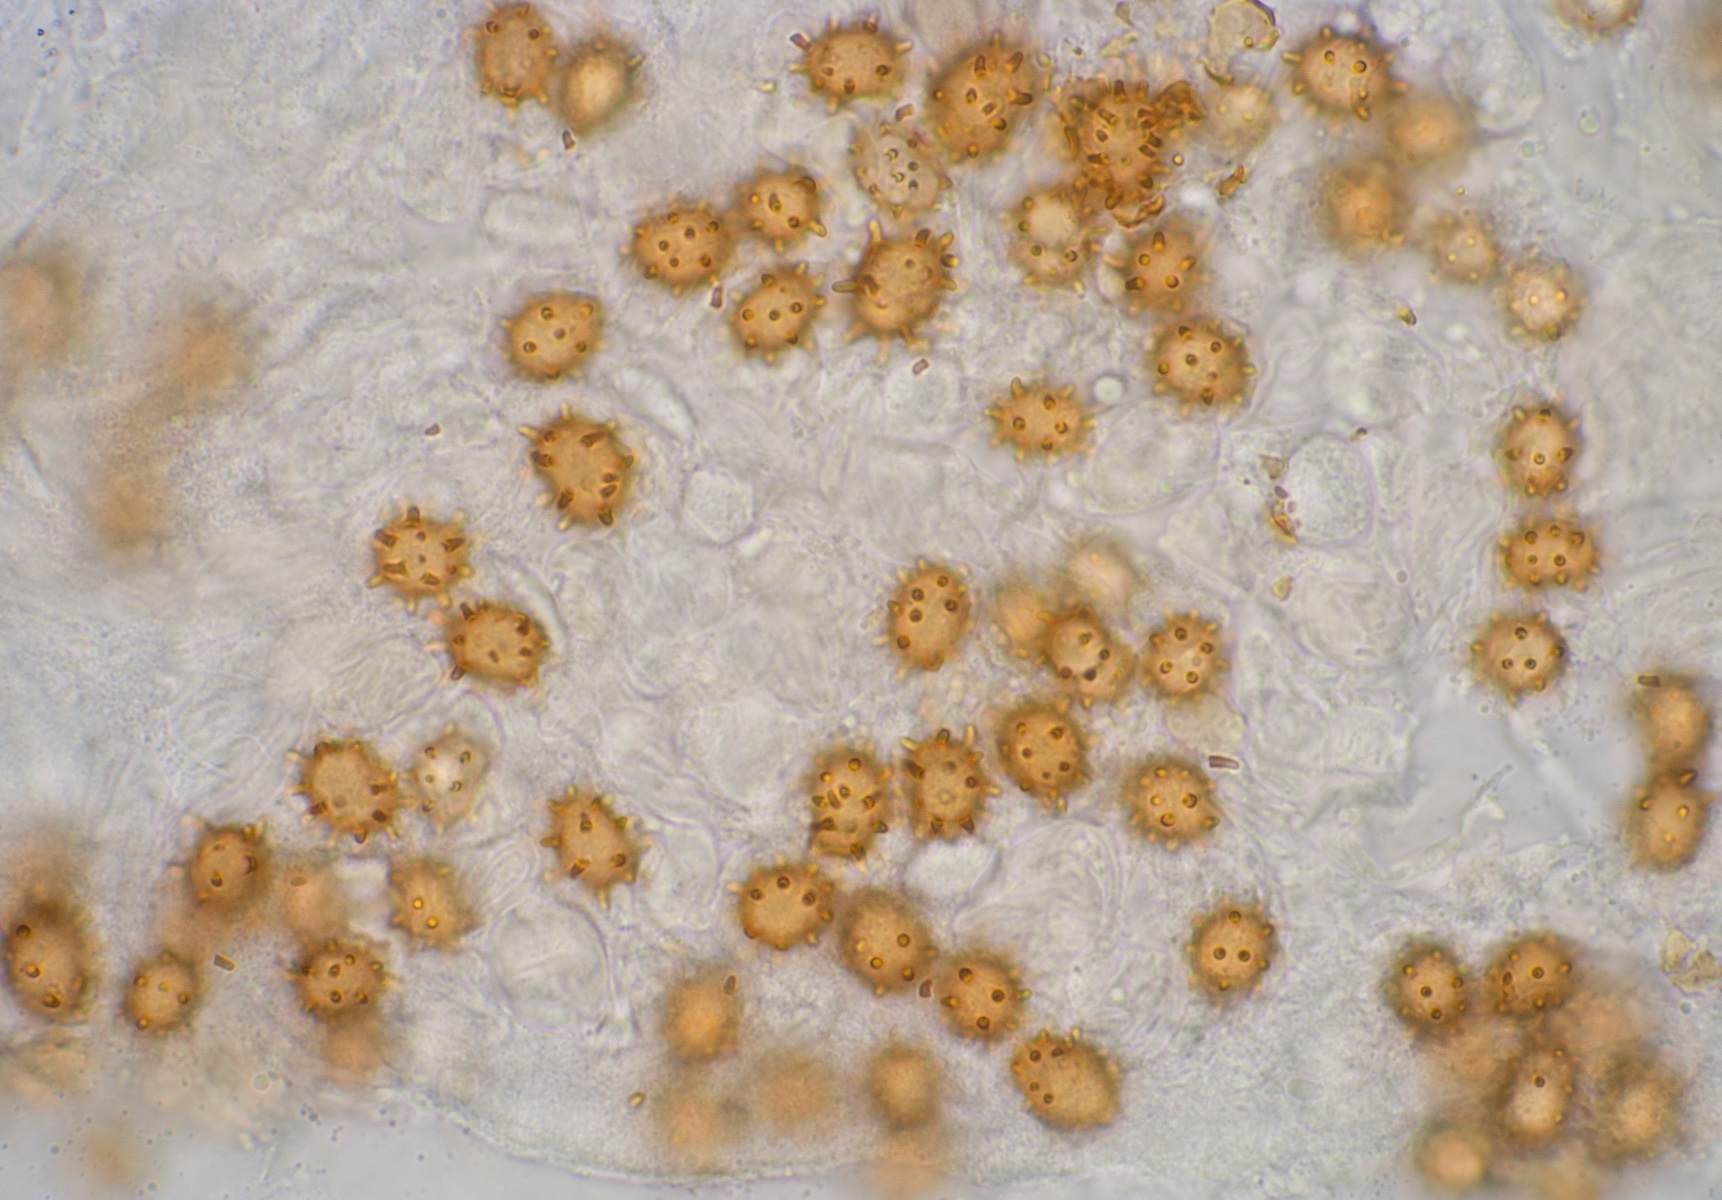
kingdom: Fungi
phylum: Basidiomycota
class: Agaricomycetes
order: Agaricales
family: Inocybaceae
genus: Inocybe
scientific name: Inocybe calospora
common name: pigsporet trævlhat
